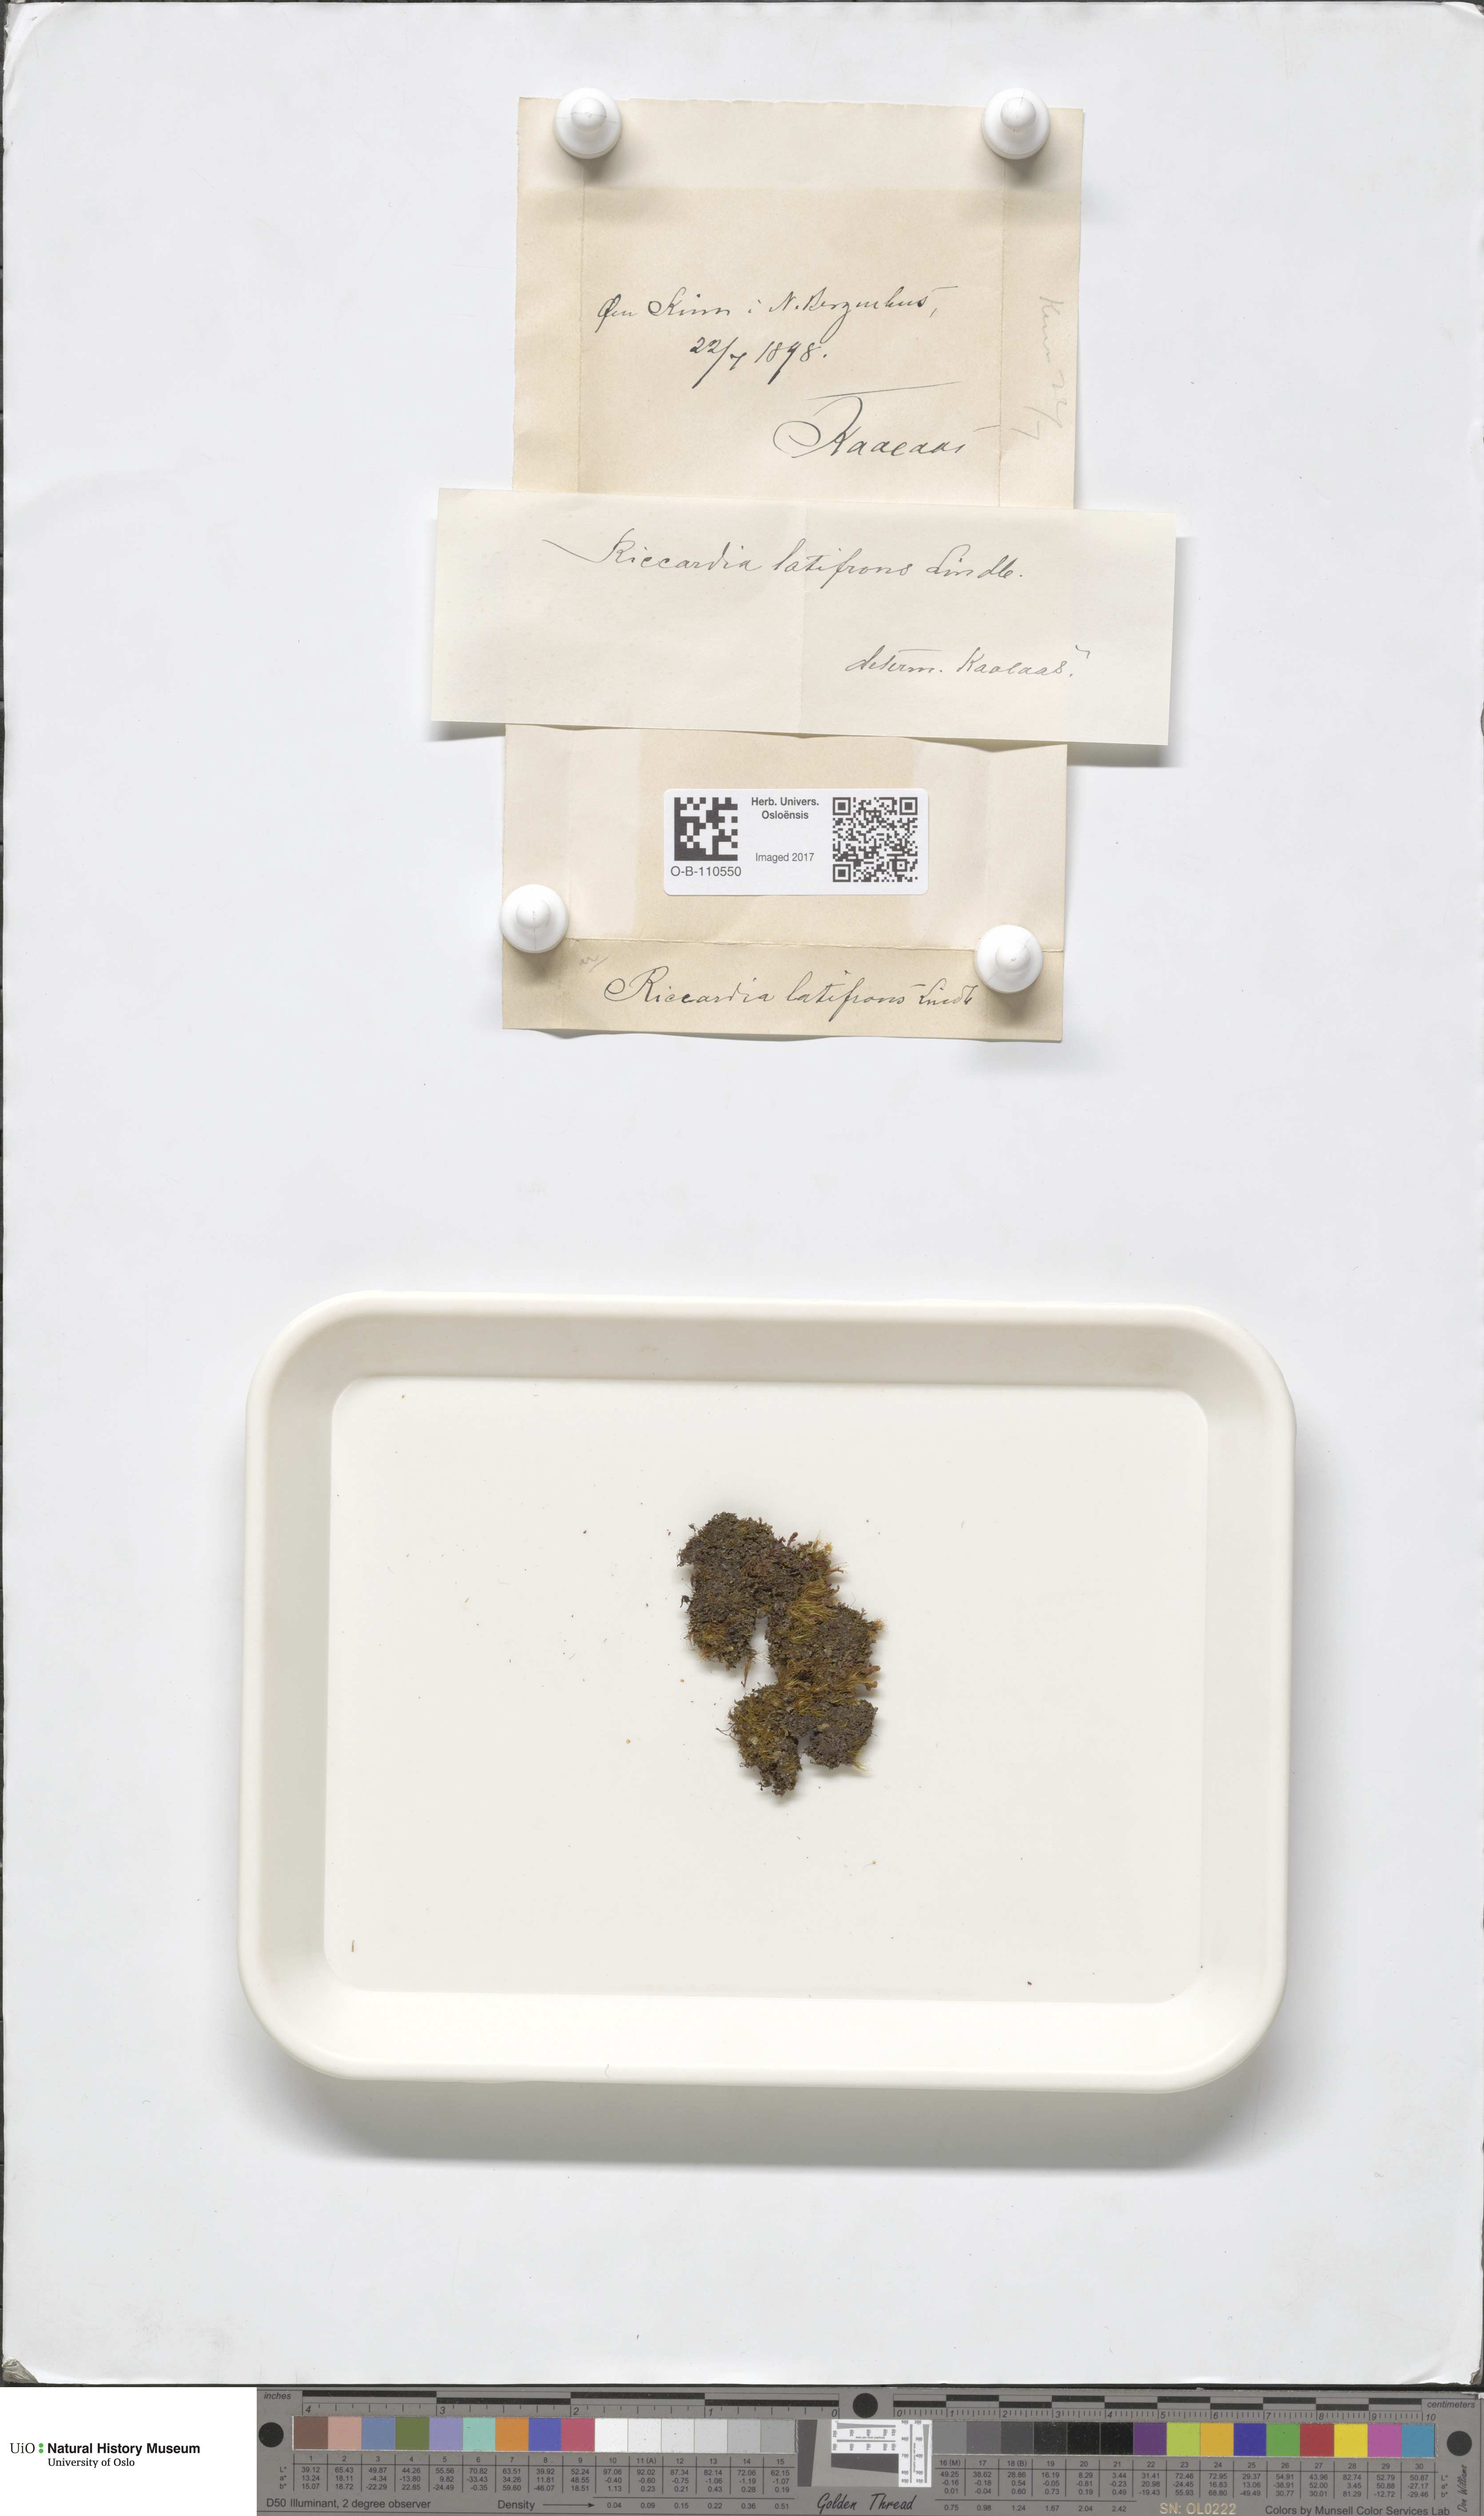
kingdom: Plantae
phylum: Marchantiophyta
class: Jungermanniopsida
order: Metzgeriales
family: Aneuraceae
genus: Riccardia
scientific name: Riccardia latifrons
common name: Bog germanderwort
